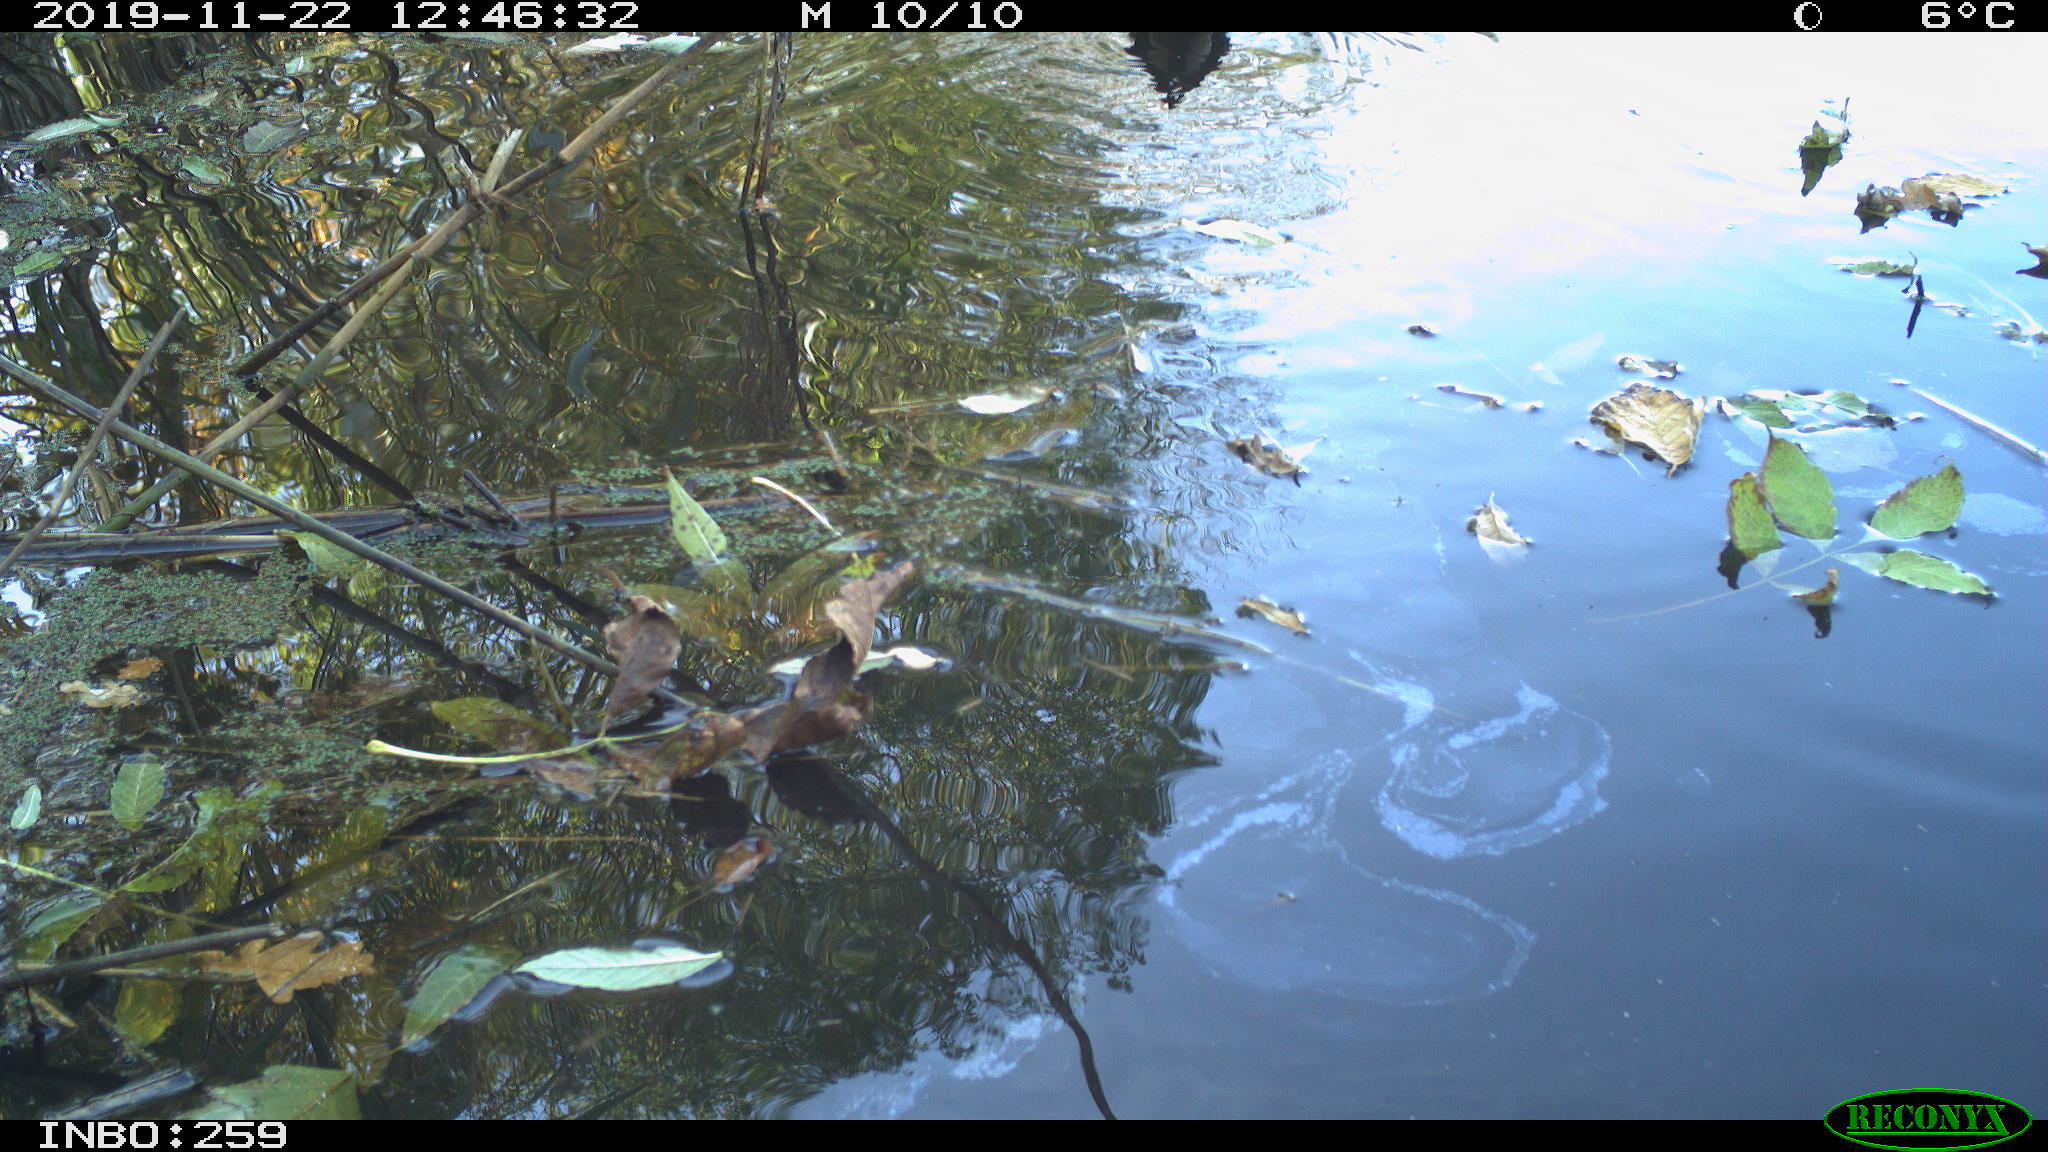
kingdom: Animalia
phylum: Chordata
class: Aves
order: Gruiformes
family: Rallidae
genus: Gallinula
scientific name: Gallinula chloropus
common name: Common moorhen
